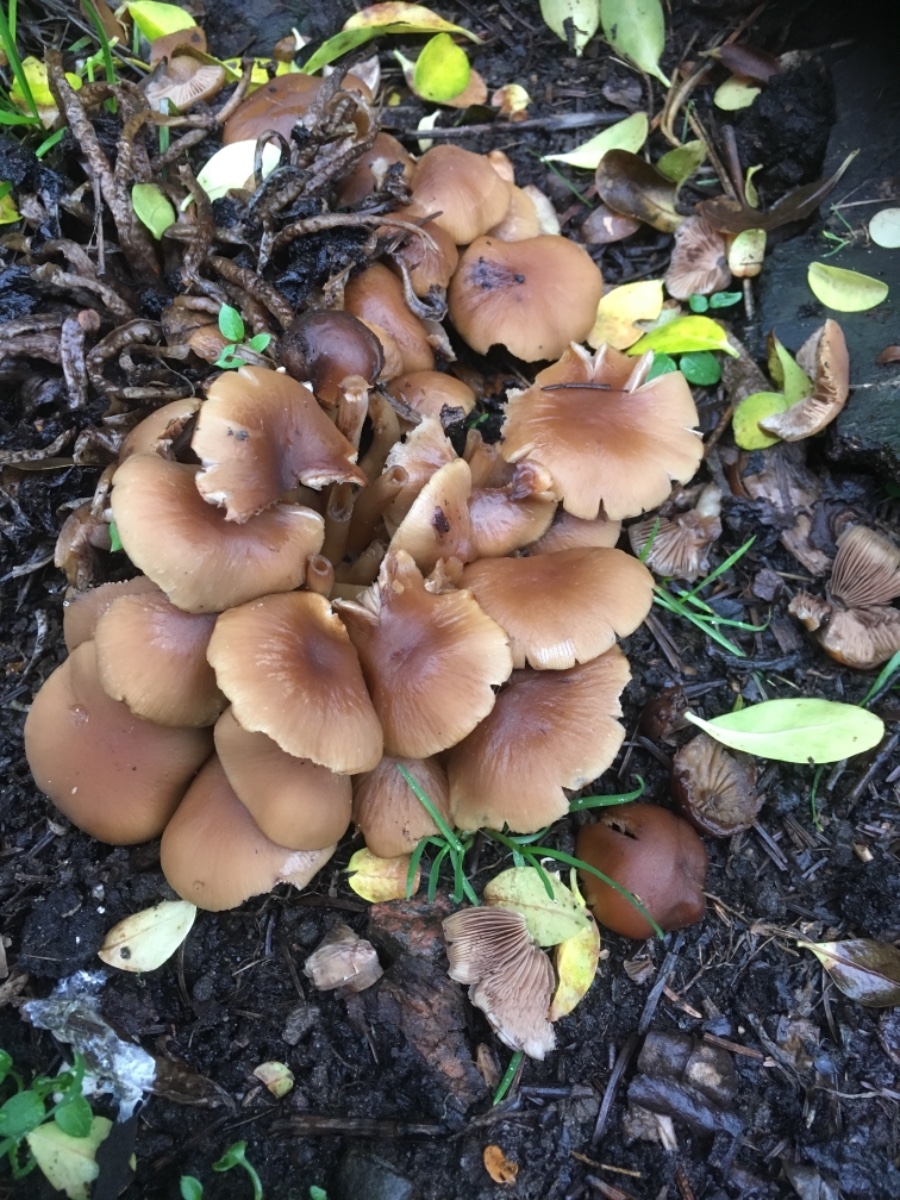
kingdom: Fungi
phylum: Basidiomycota
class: Agaricomycetes
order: Agaricales
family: Psathyrellaceae
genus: Psathyrella
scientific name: Psathyrella piluliformis
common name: lysstokket mørkhat
